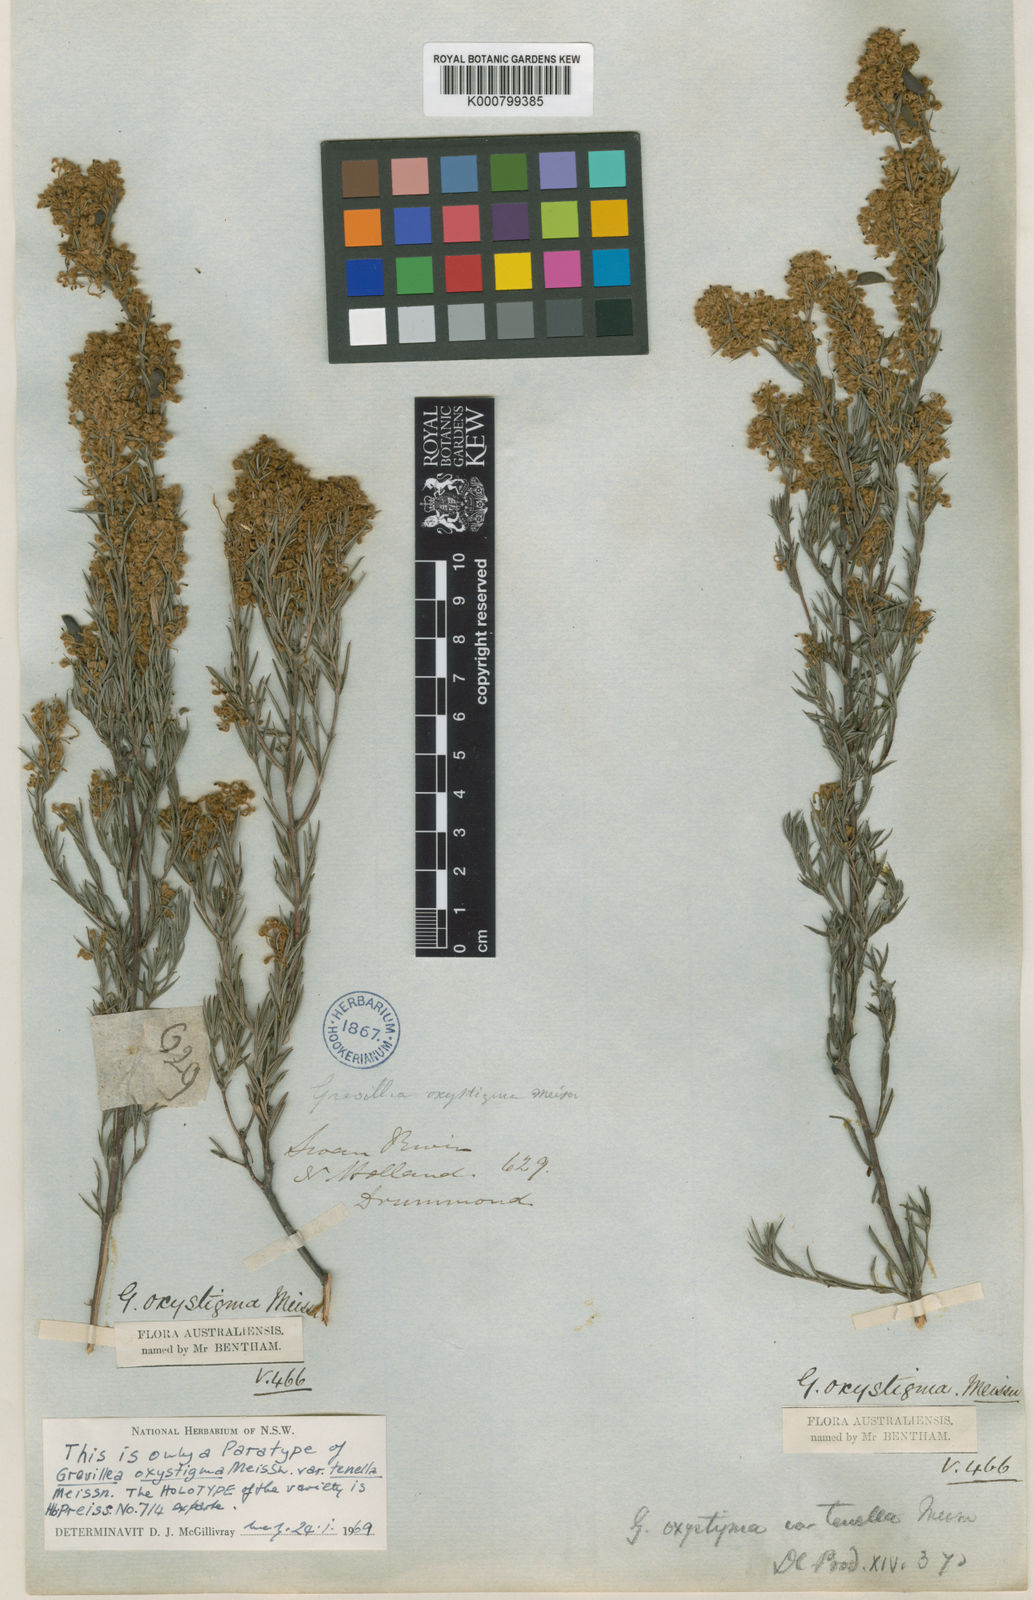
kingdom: Plantae
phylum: Tracheophyta
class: Magnoliopsida
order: Proteales
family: Proteaceae
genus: Grevillea
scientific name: Grevillea pilulifera
